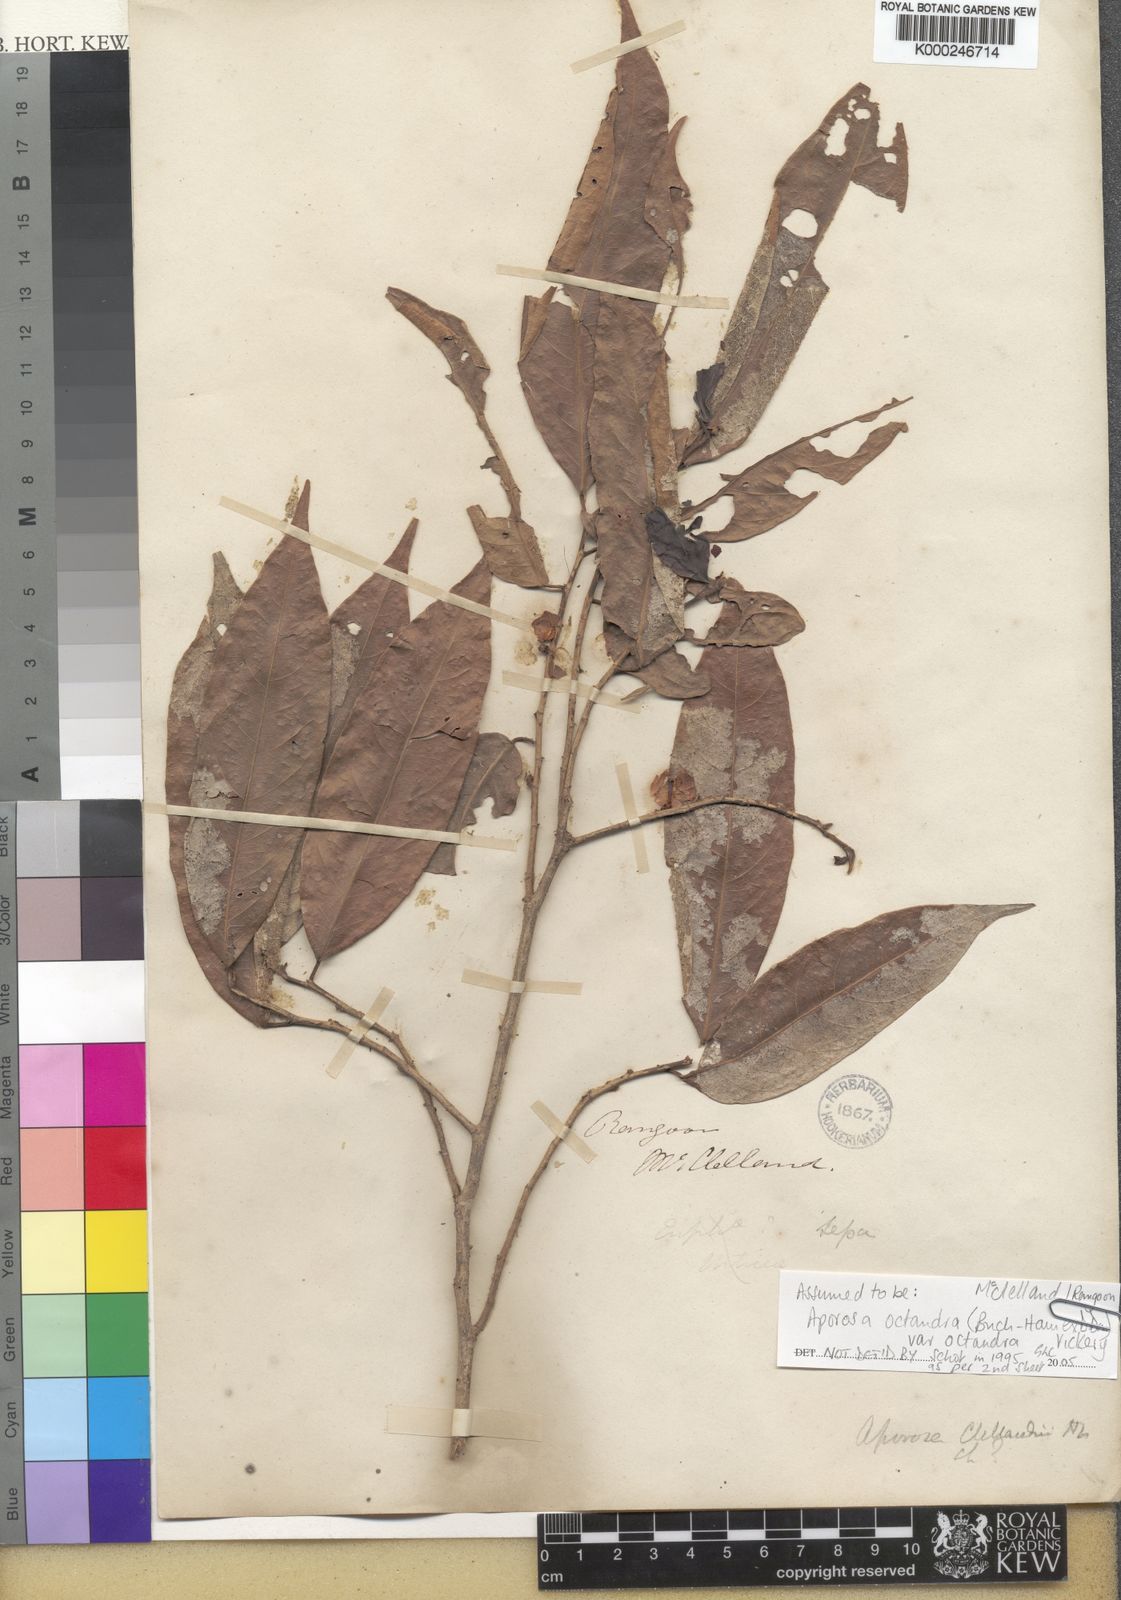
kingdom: Plantae
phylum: Tracheophyta
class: Magnoliopsida
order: Malpighiales
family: Phyllanthaceae
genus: Aporosa
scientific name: Aporosa octandra
